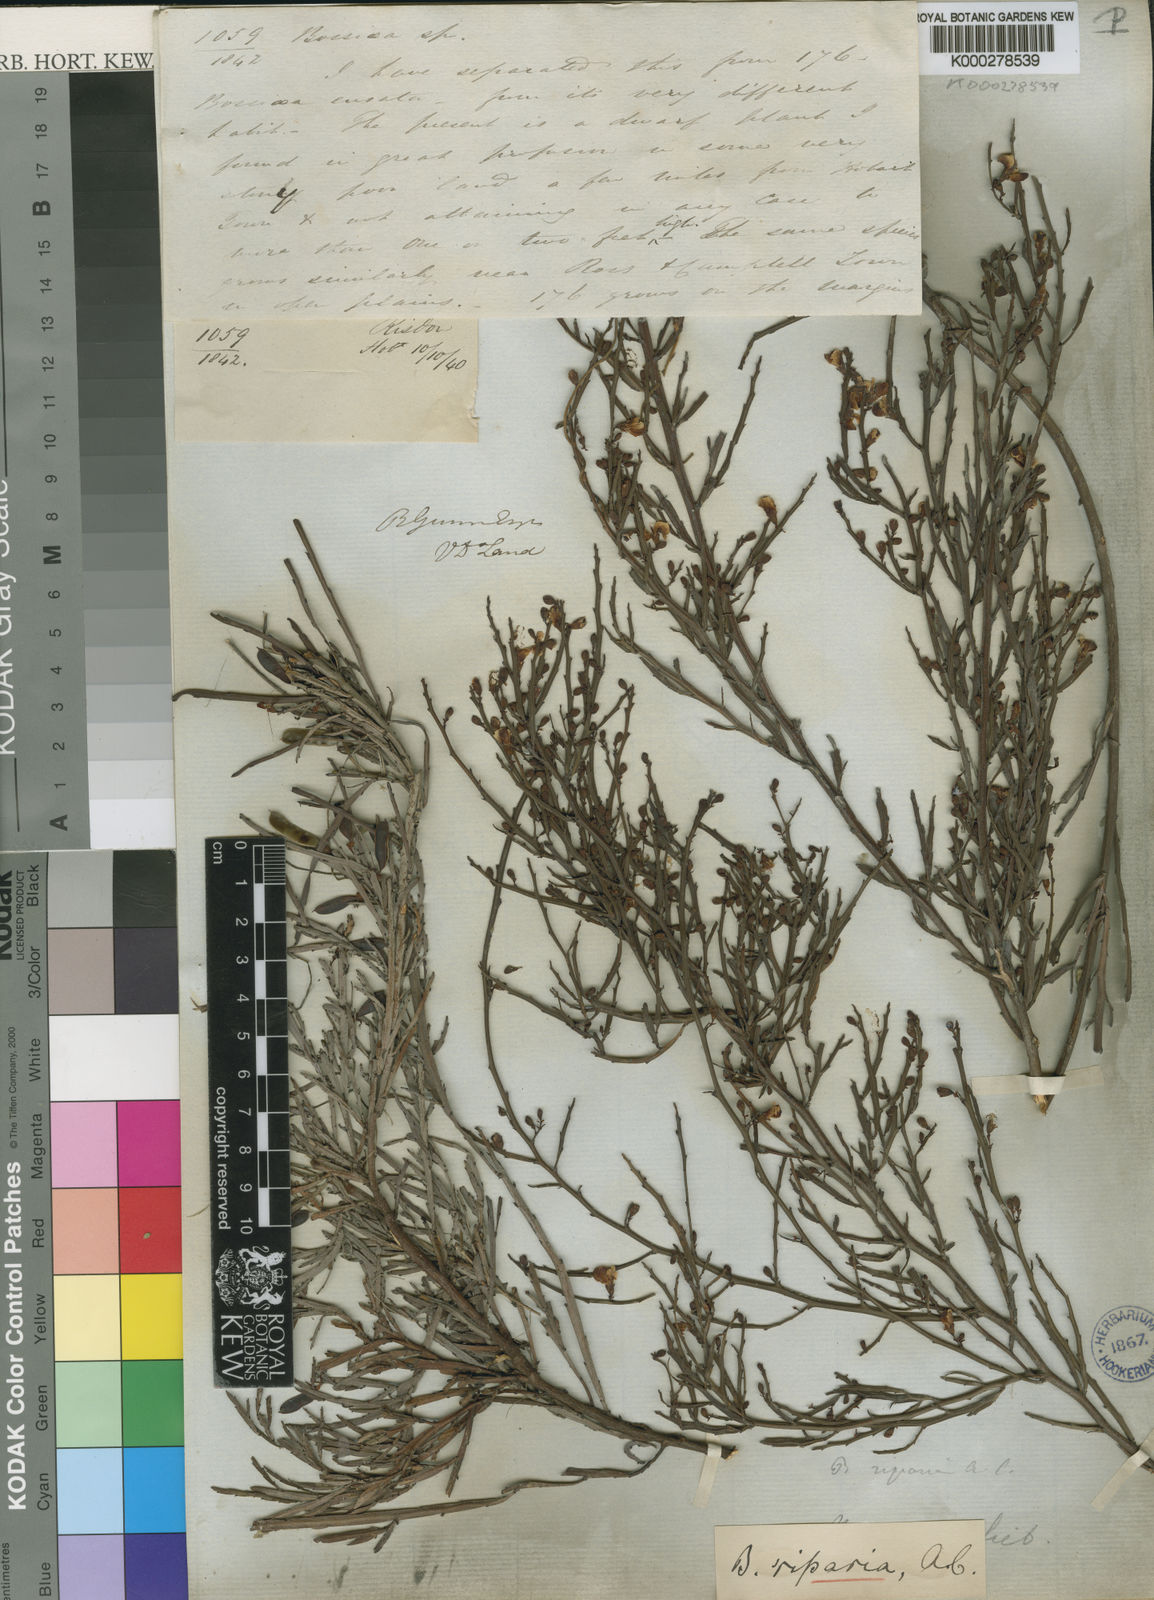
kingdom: Plantae
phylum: Tracheophyta
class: Magnoliopsida
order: Fabales
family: Fabaceae
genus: Bossiaea
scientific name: Bossiaea riparia
